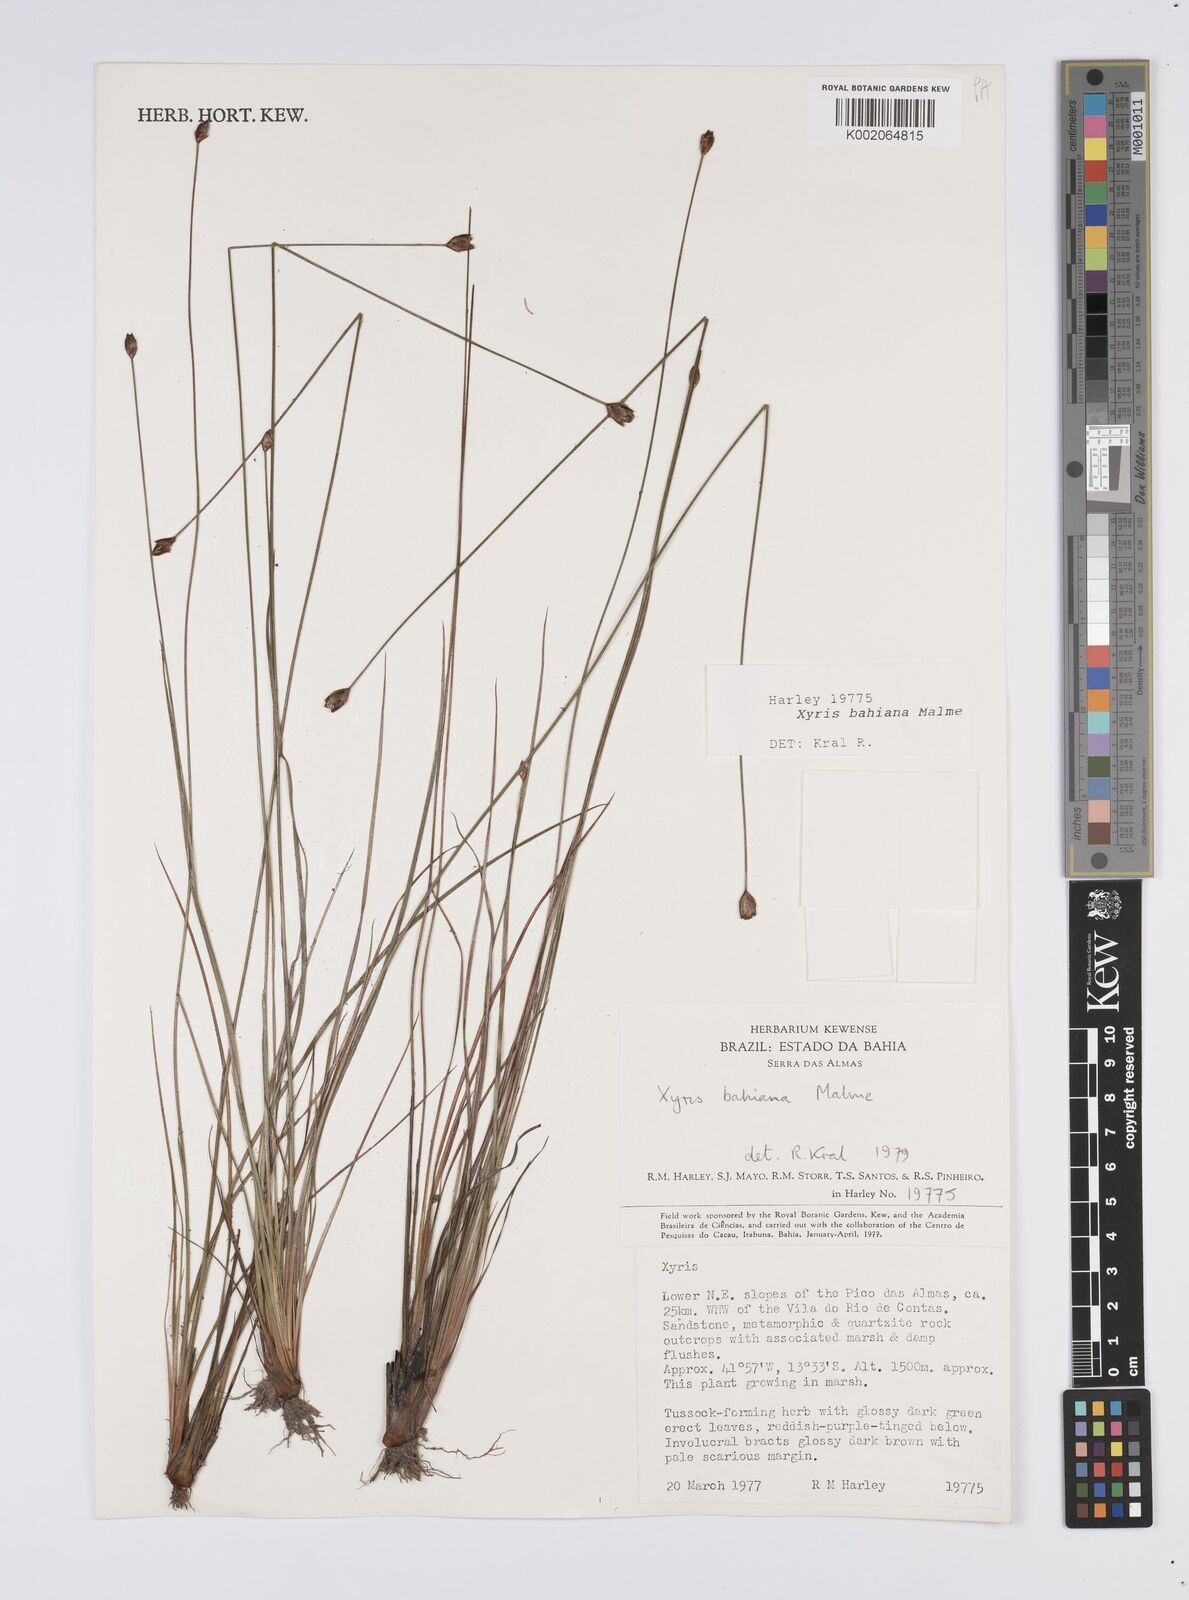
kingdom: Plantae
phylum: Tracheophyta
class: Liliopsida
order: Poales
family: Xyridaceae
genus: Xyris
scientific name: Xyris bahiana
